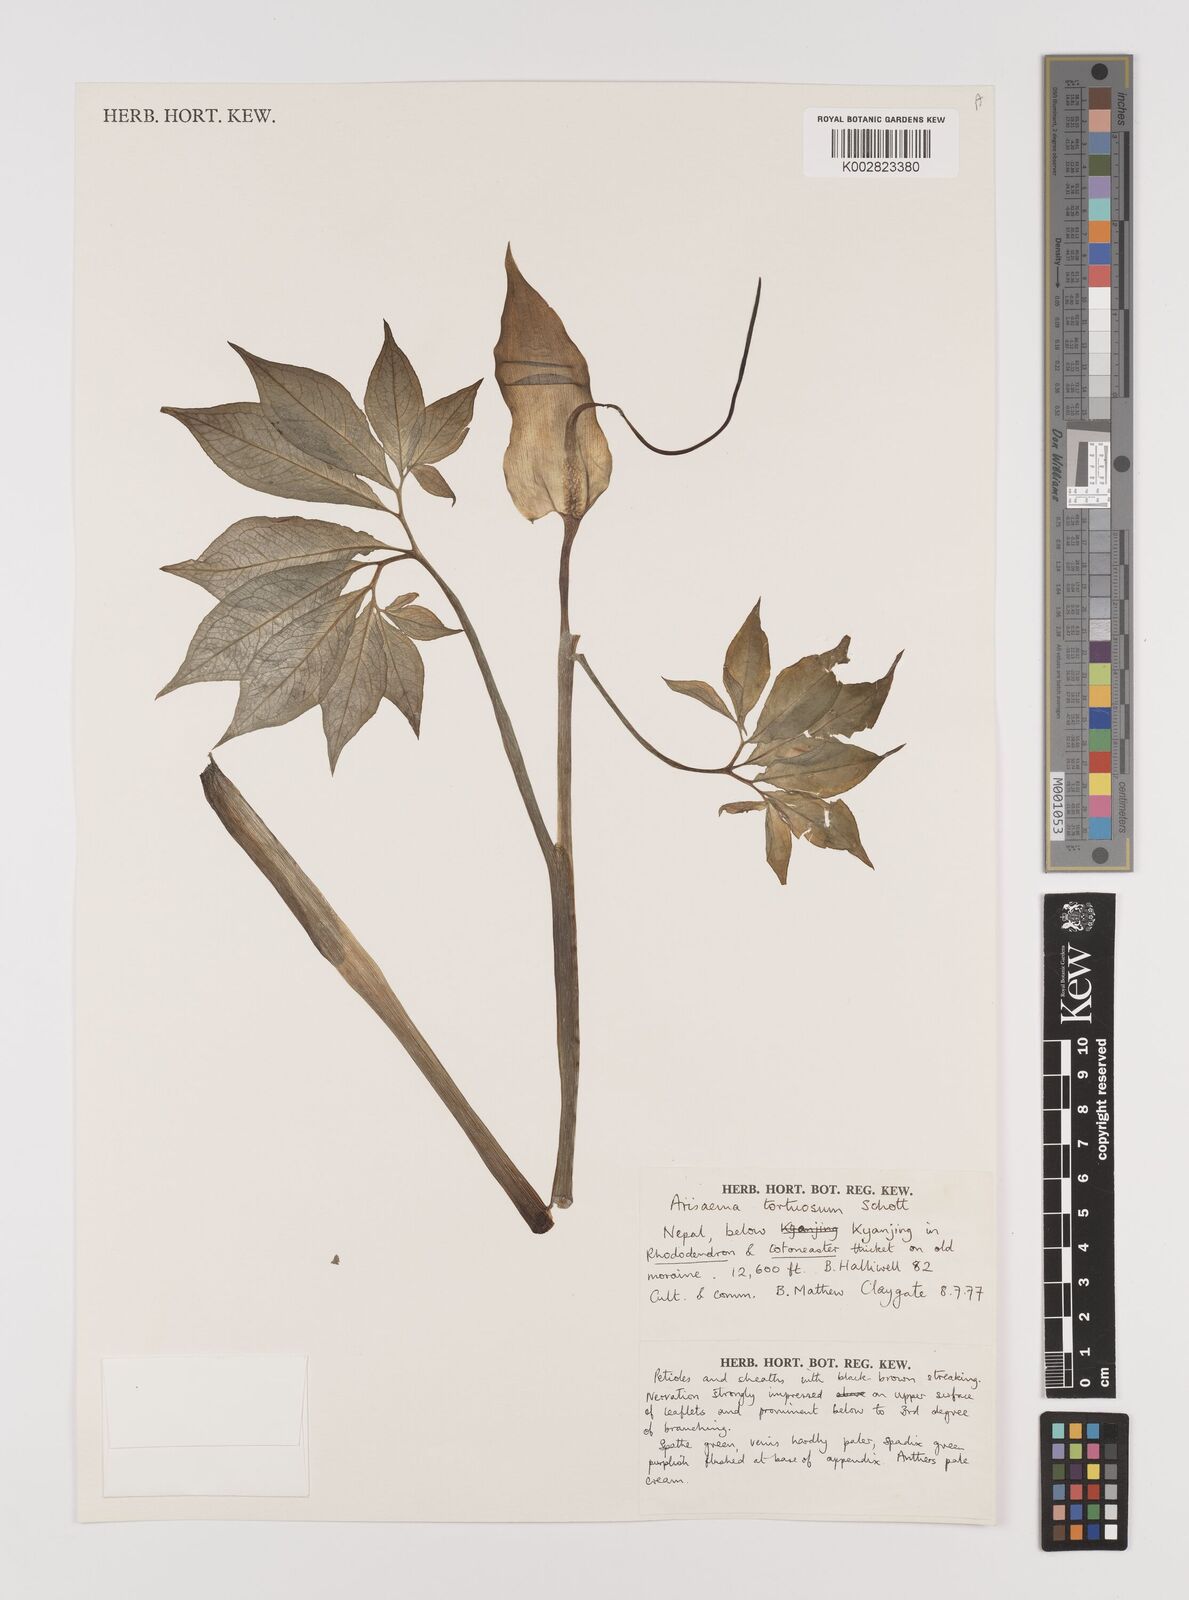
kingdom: Plantae
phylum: Tracheophyta
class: Liliopsida
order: Alismatales
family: Araceae
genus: Arisaema
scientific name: Arisaema tortuosum
